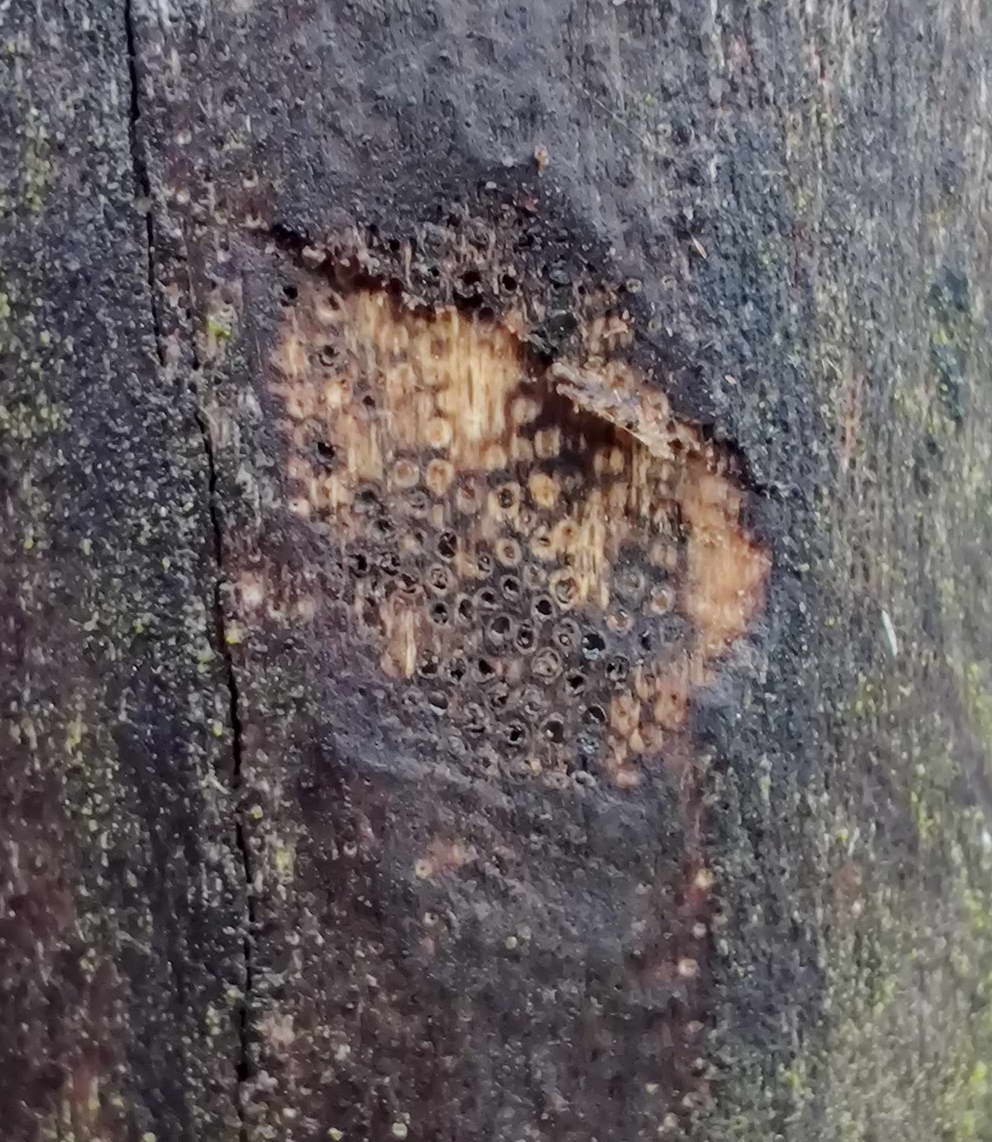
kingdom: Fungi
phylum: Ascomycota
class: Sordariomycetes
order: Xylariales
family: Diatrypaceae
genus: Eutypa
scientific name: Eutypa maura
